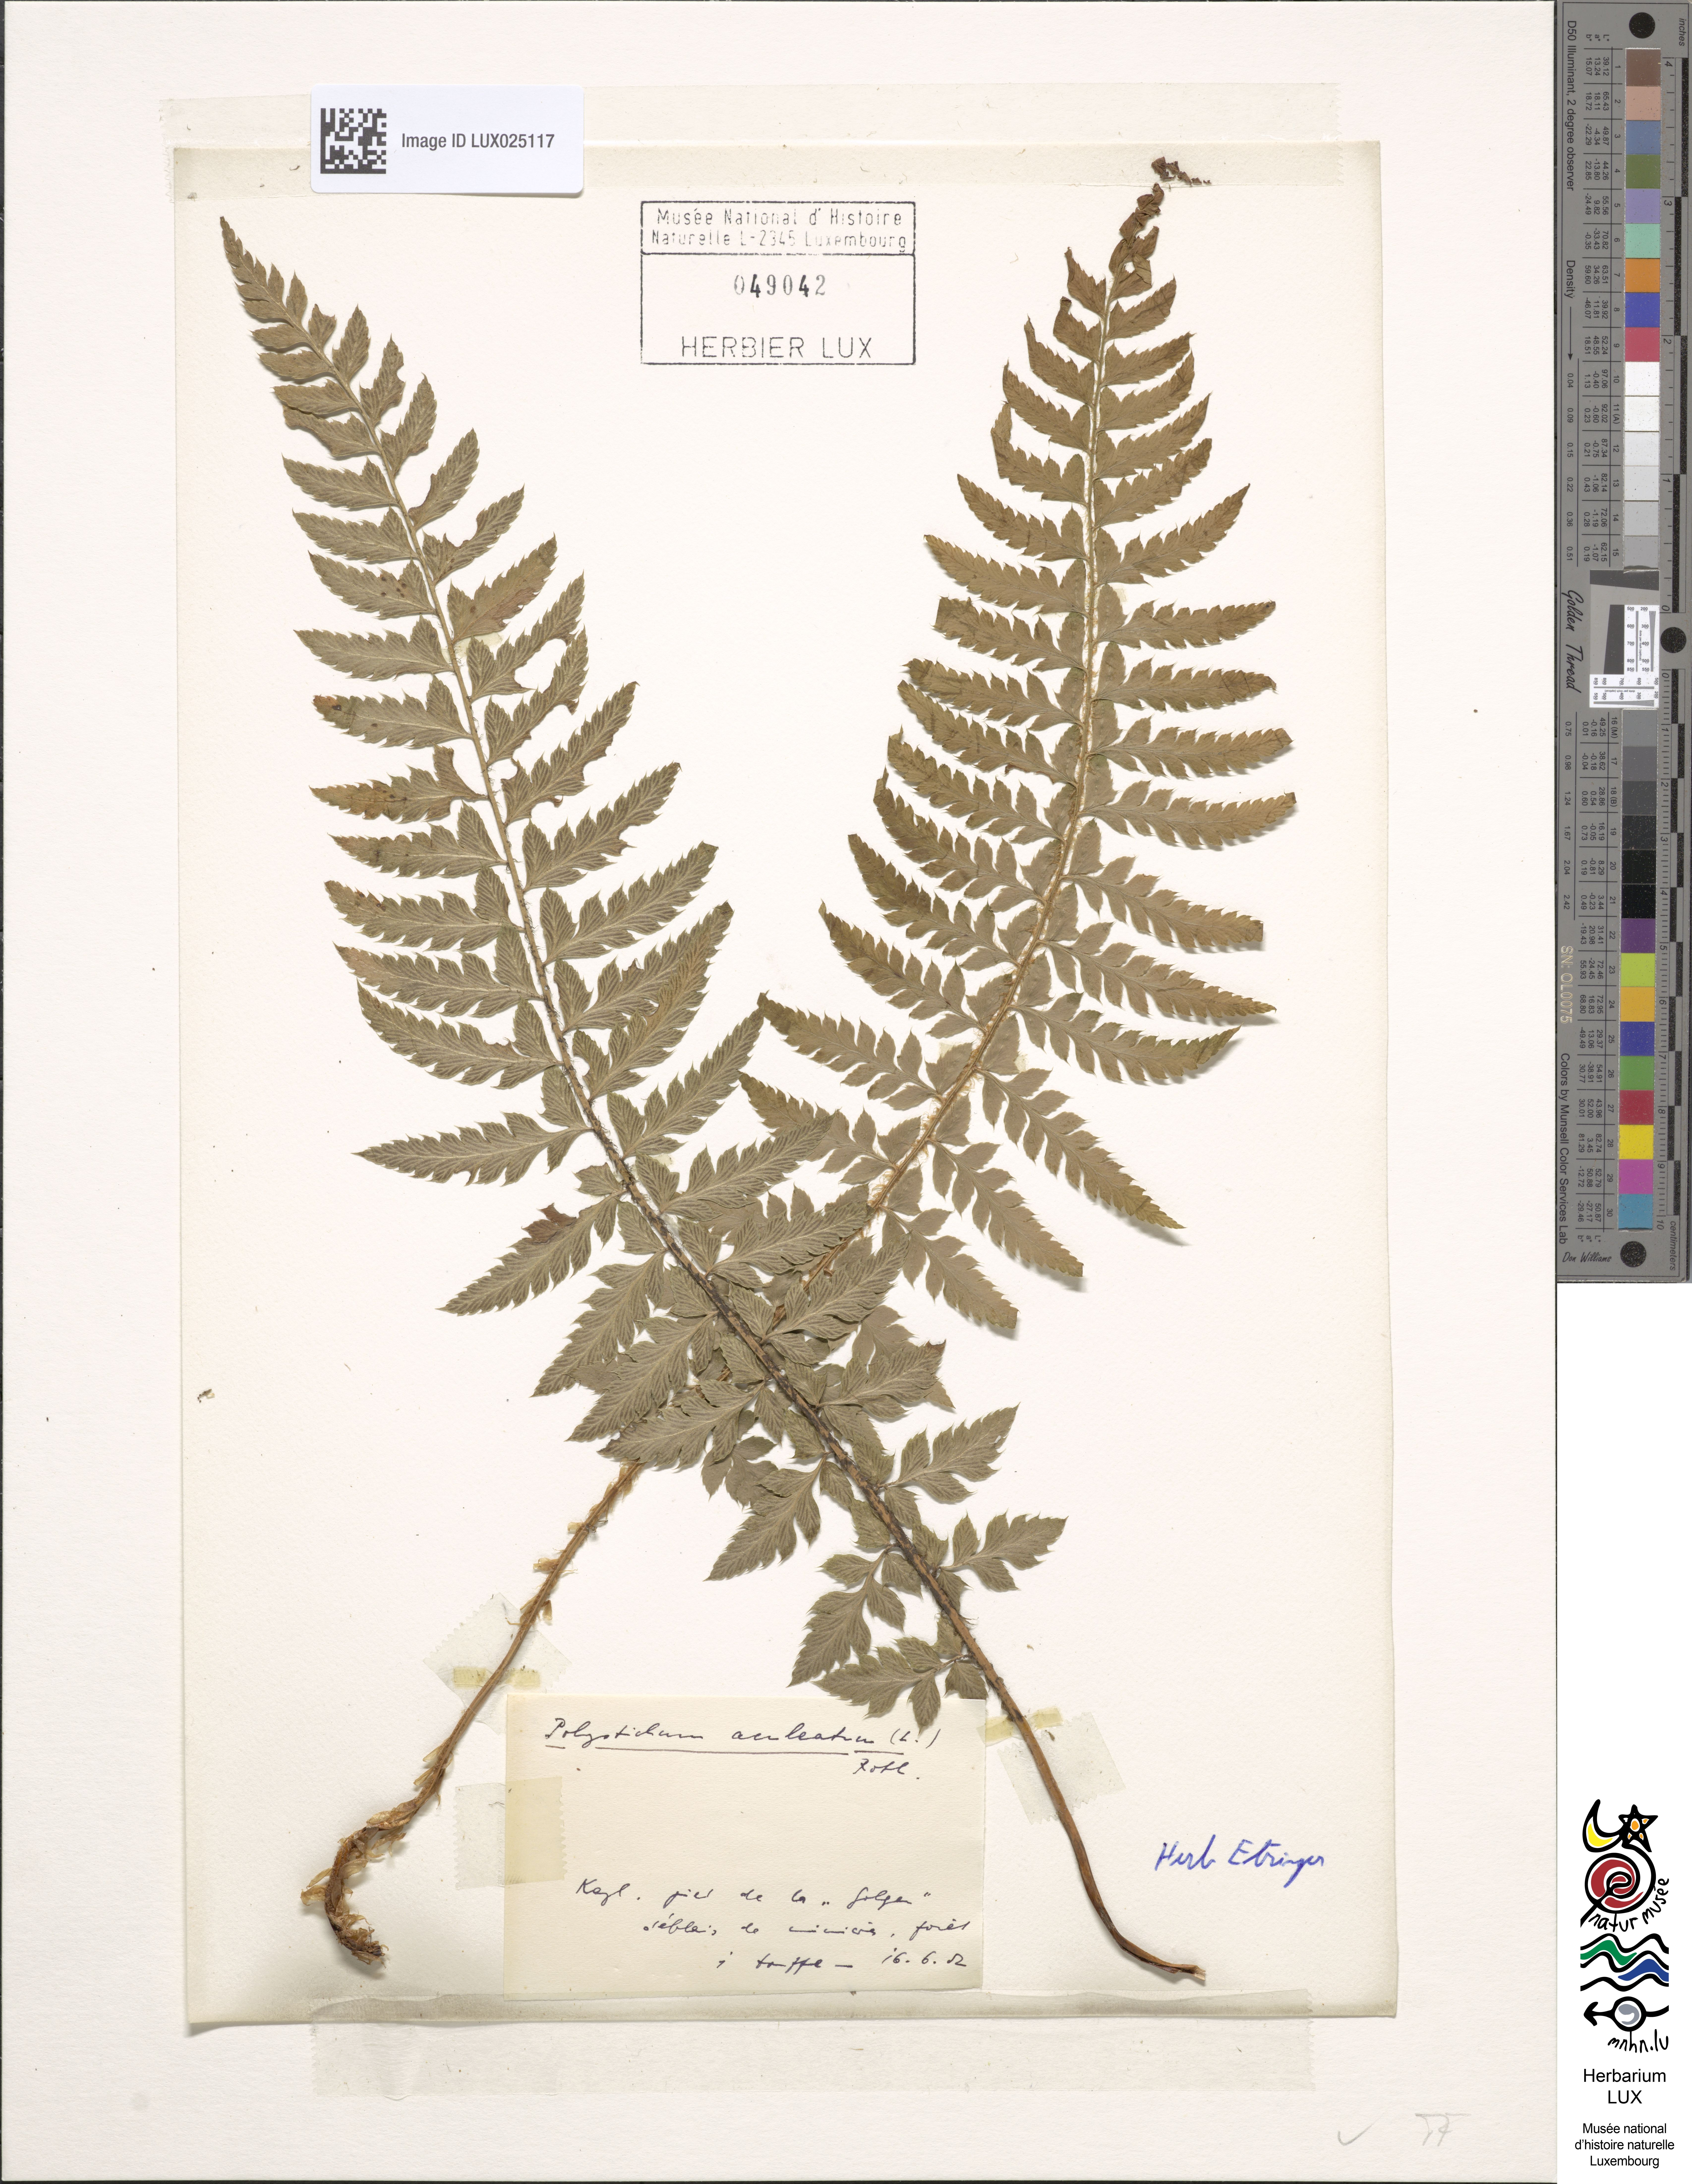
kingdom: Plantae
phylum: Tracheophyta
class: Polypodiopsida
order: Polypodiales
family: Dryopteridaceae
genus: Polystichum
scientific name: Polystichum aculeatum
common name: Hard shield-fern
